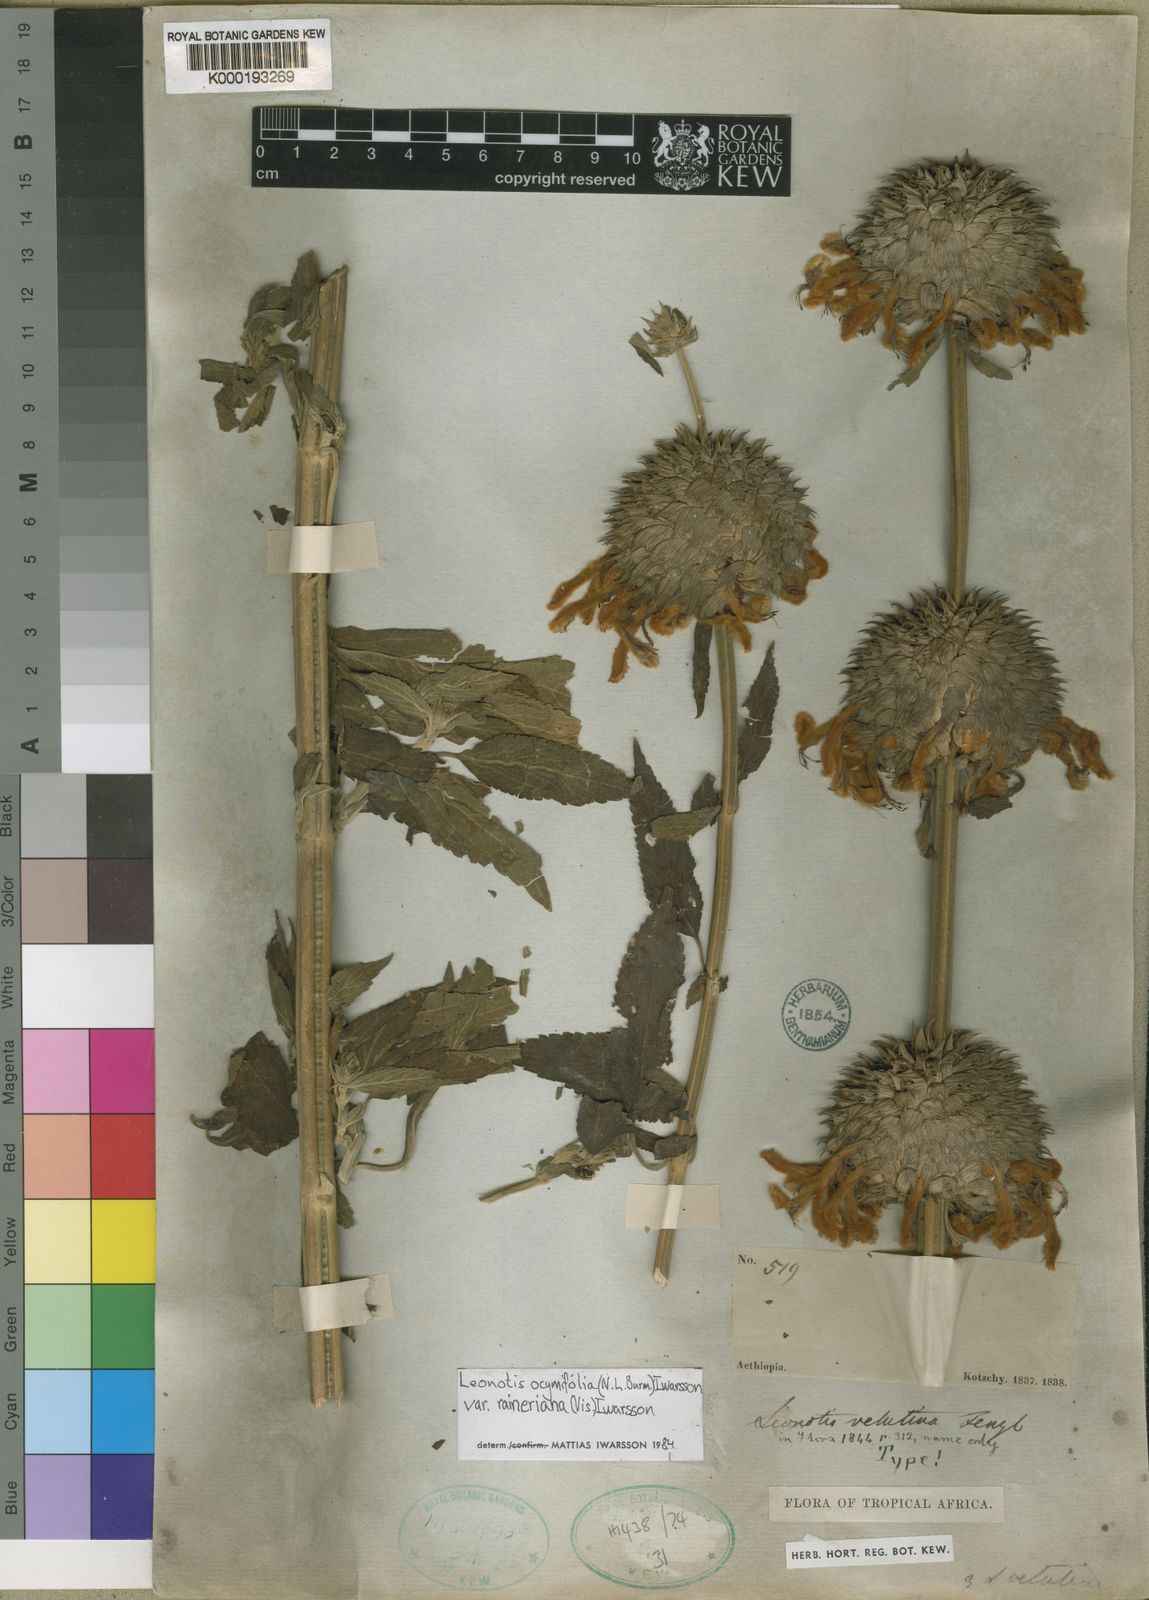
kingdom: Plantae
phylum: Tracheophyta
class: Magnoliopsida
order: Lamiales
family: Lamiaceae
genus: Leonotis
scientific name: Leonotis
